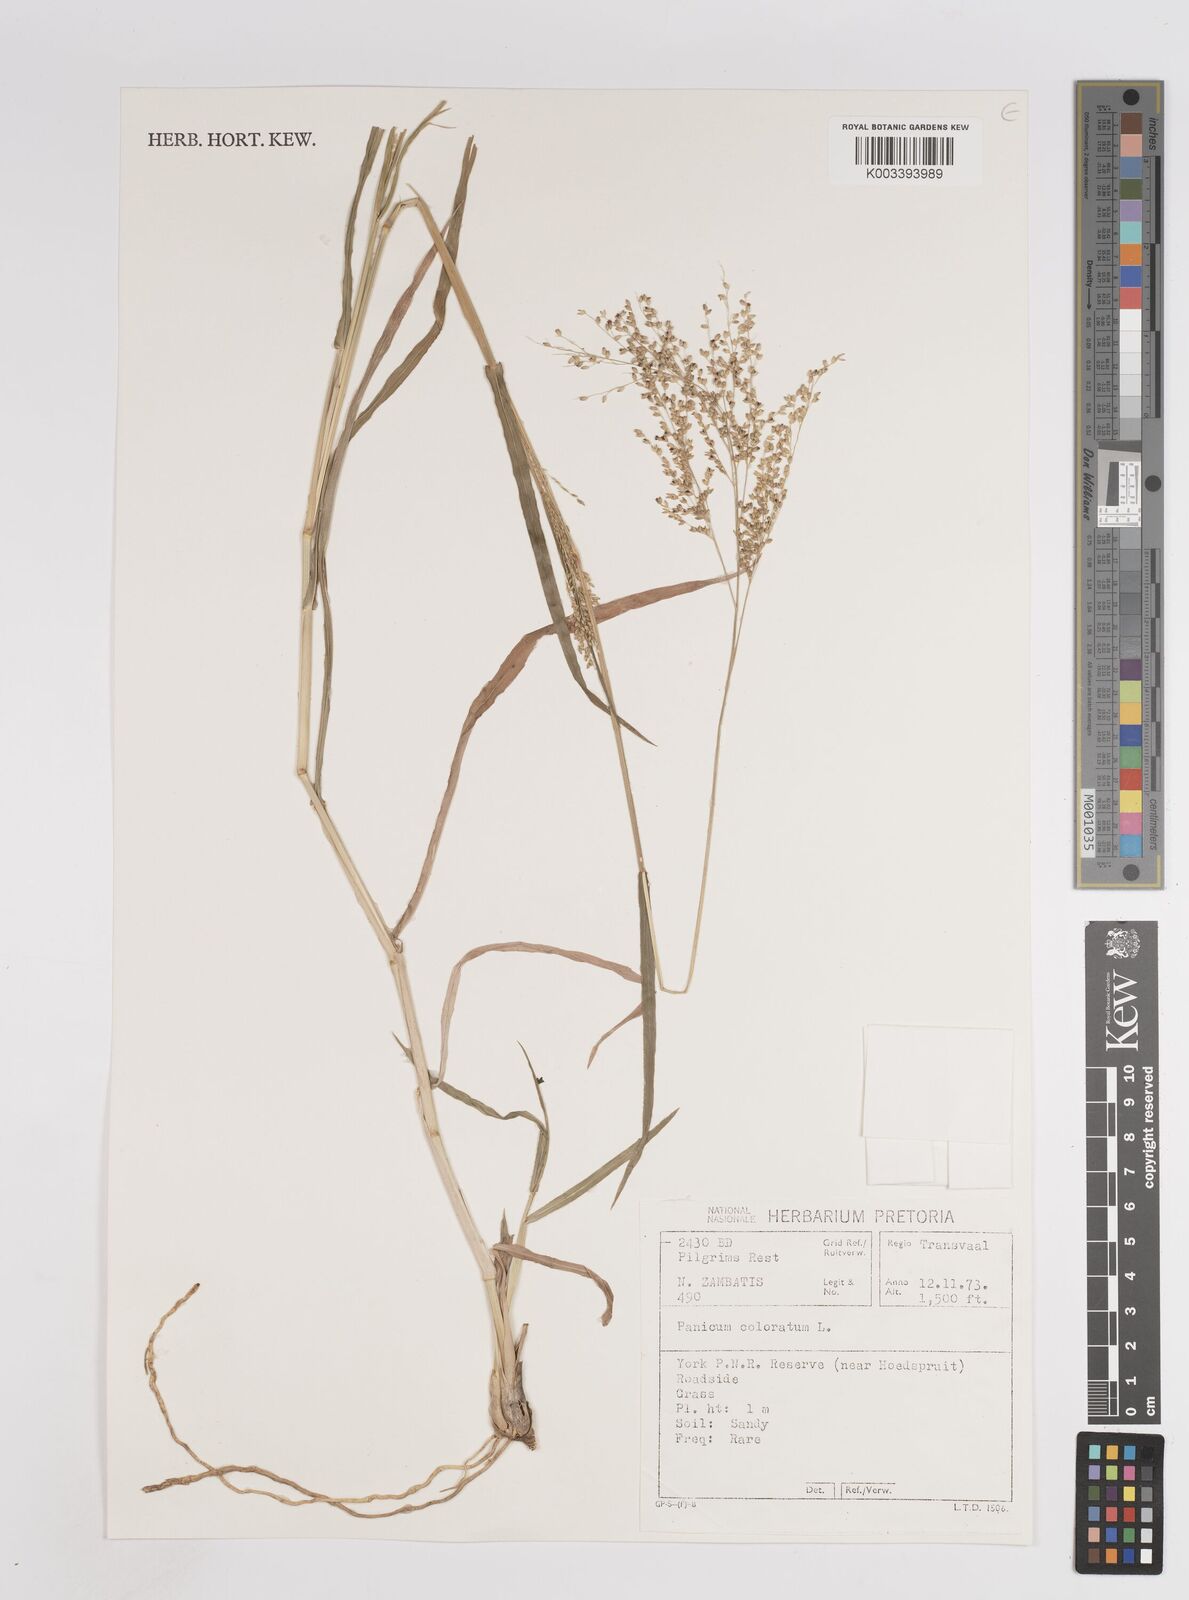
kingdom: Plantae
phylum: Tracheophyta
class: Liliopsida
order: Poales
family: Poaceae
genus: Panicum
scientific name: Panicum coloratum
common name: Kleingrass
